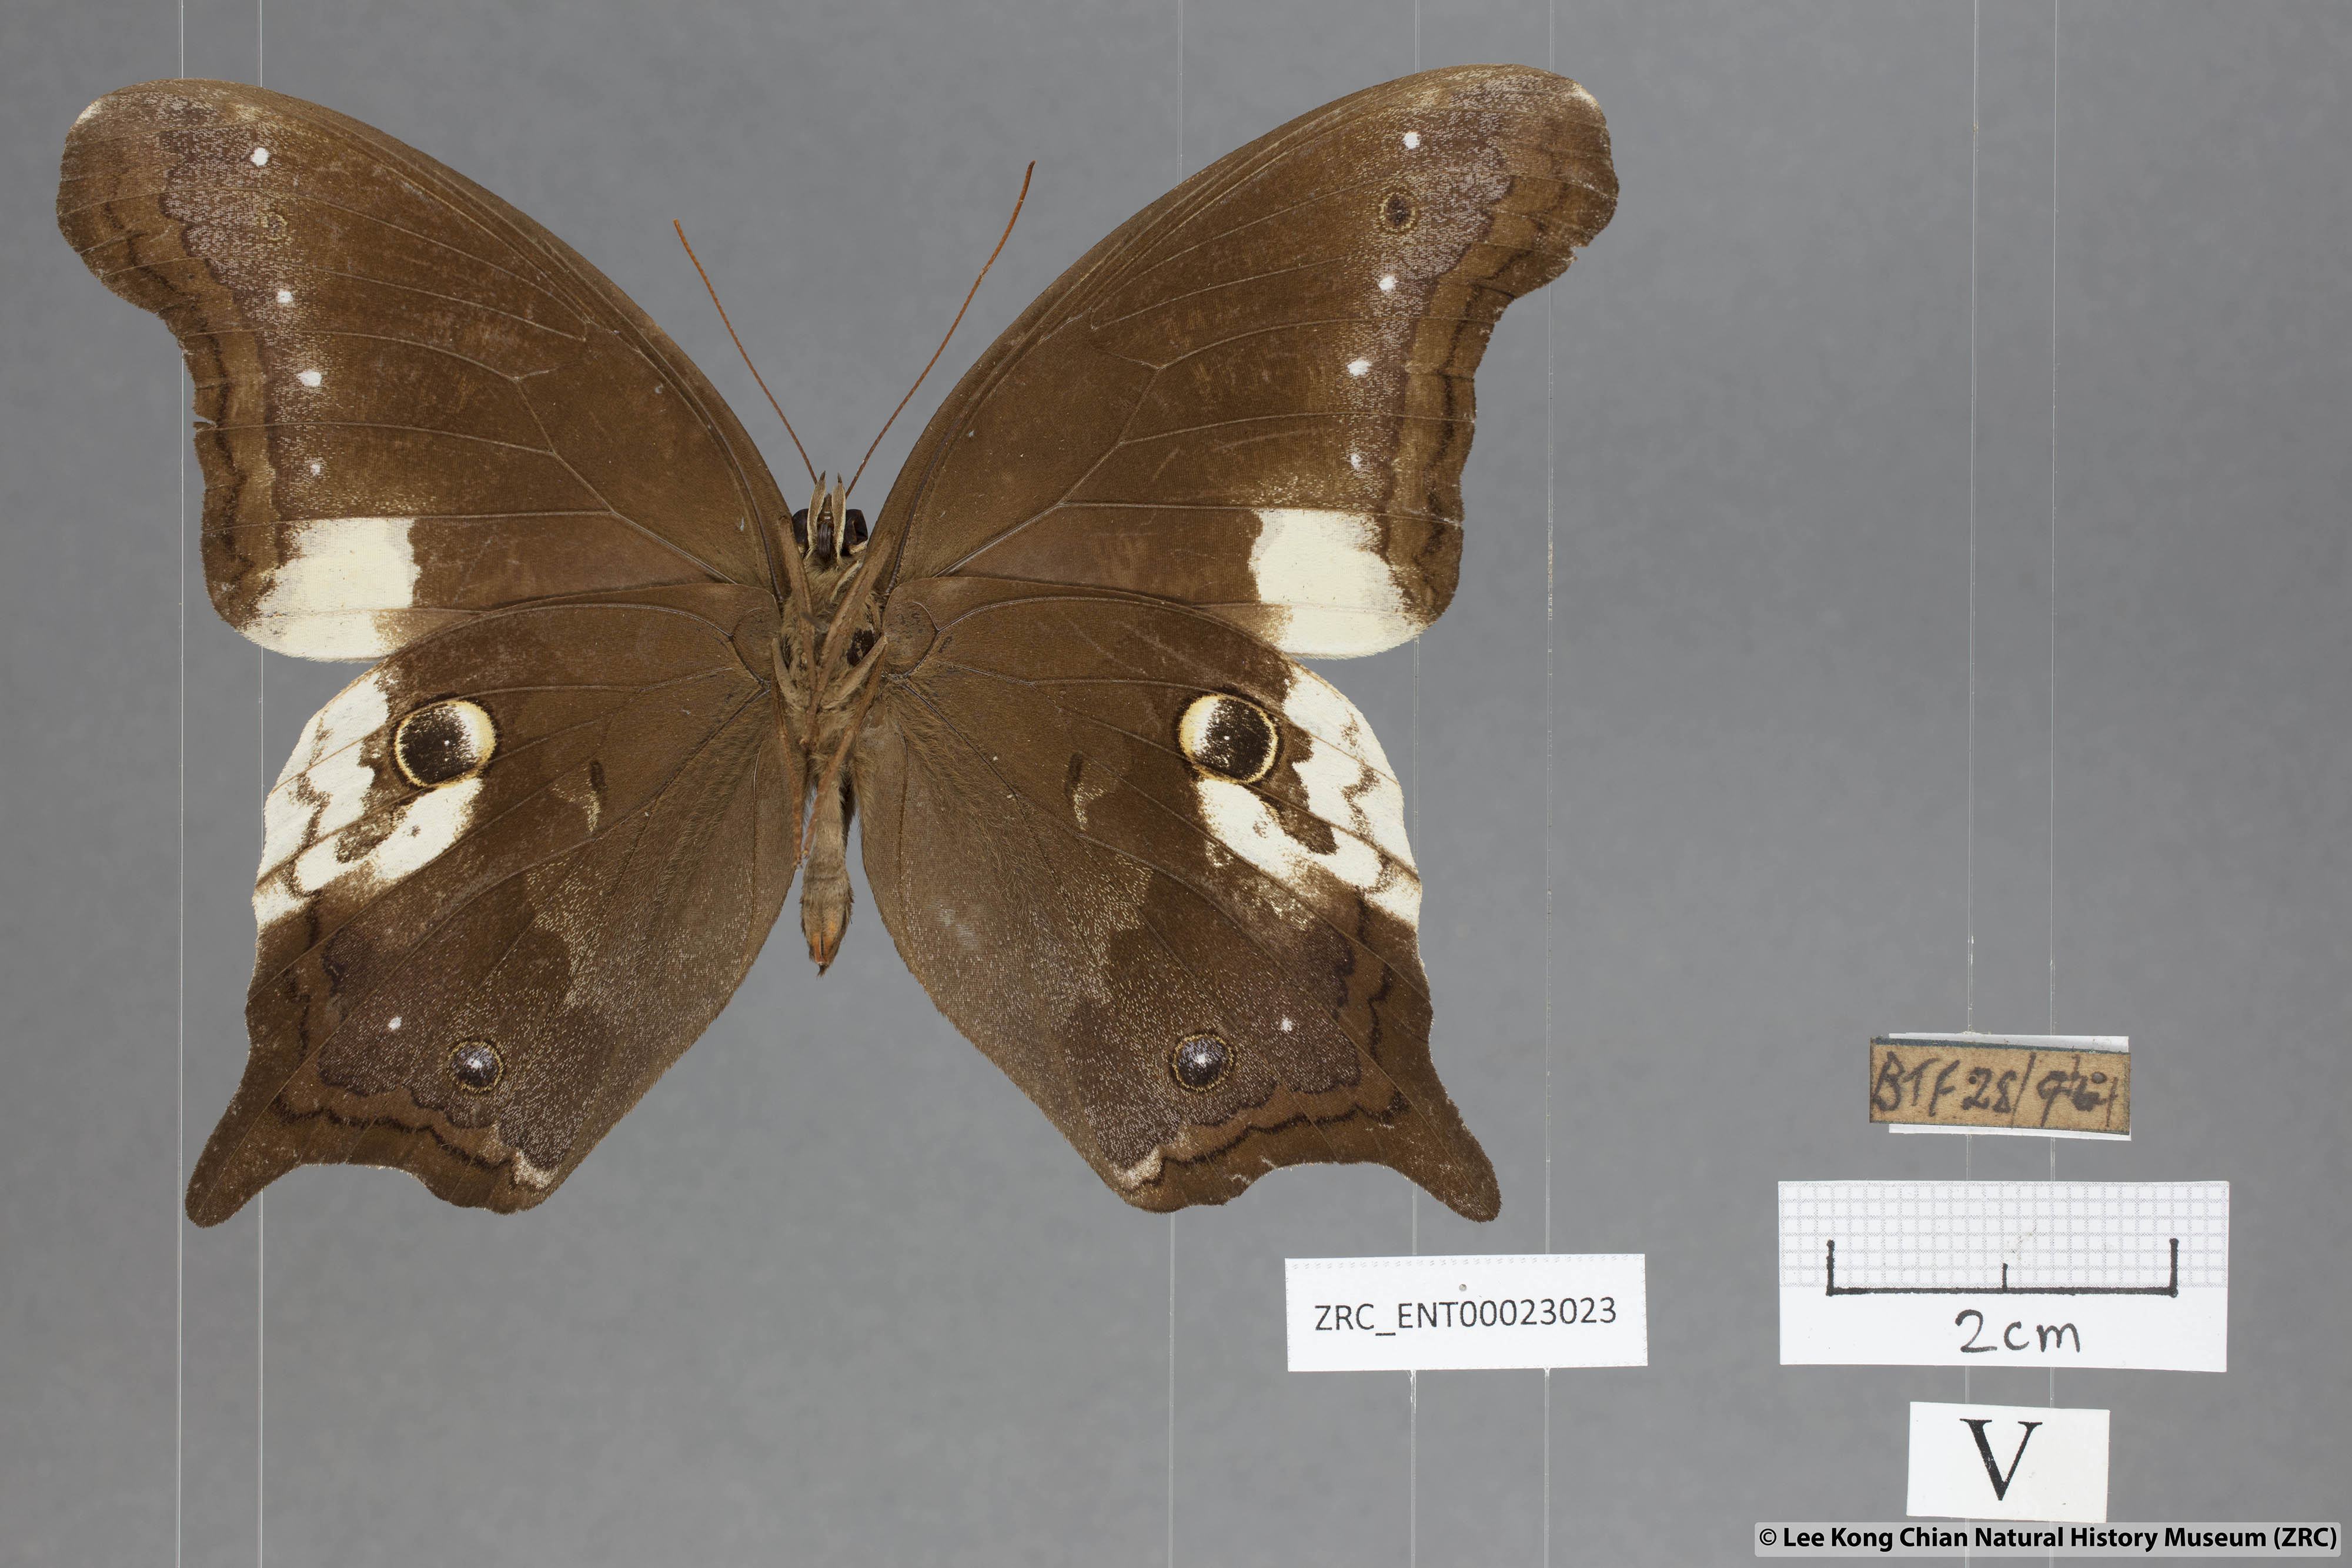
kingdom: Animalia
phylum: Arthropoda
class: Insecta
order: Lepidoptera
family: Nymphalidae
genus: Neorina
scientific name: Neorina lowii
